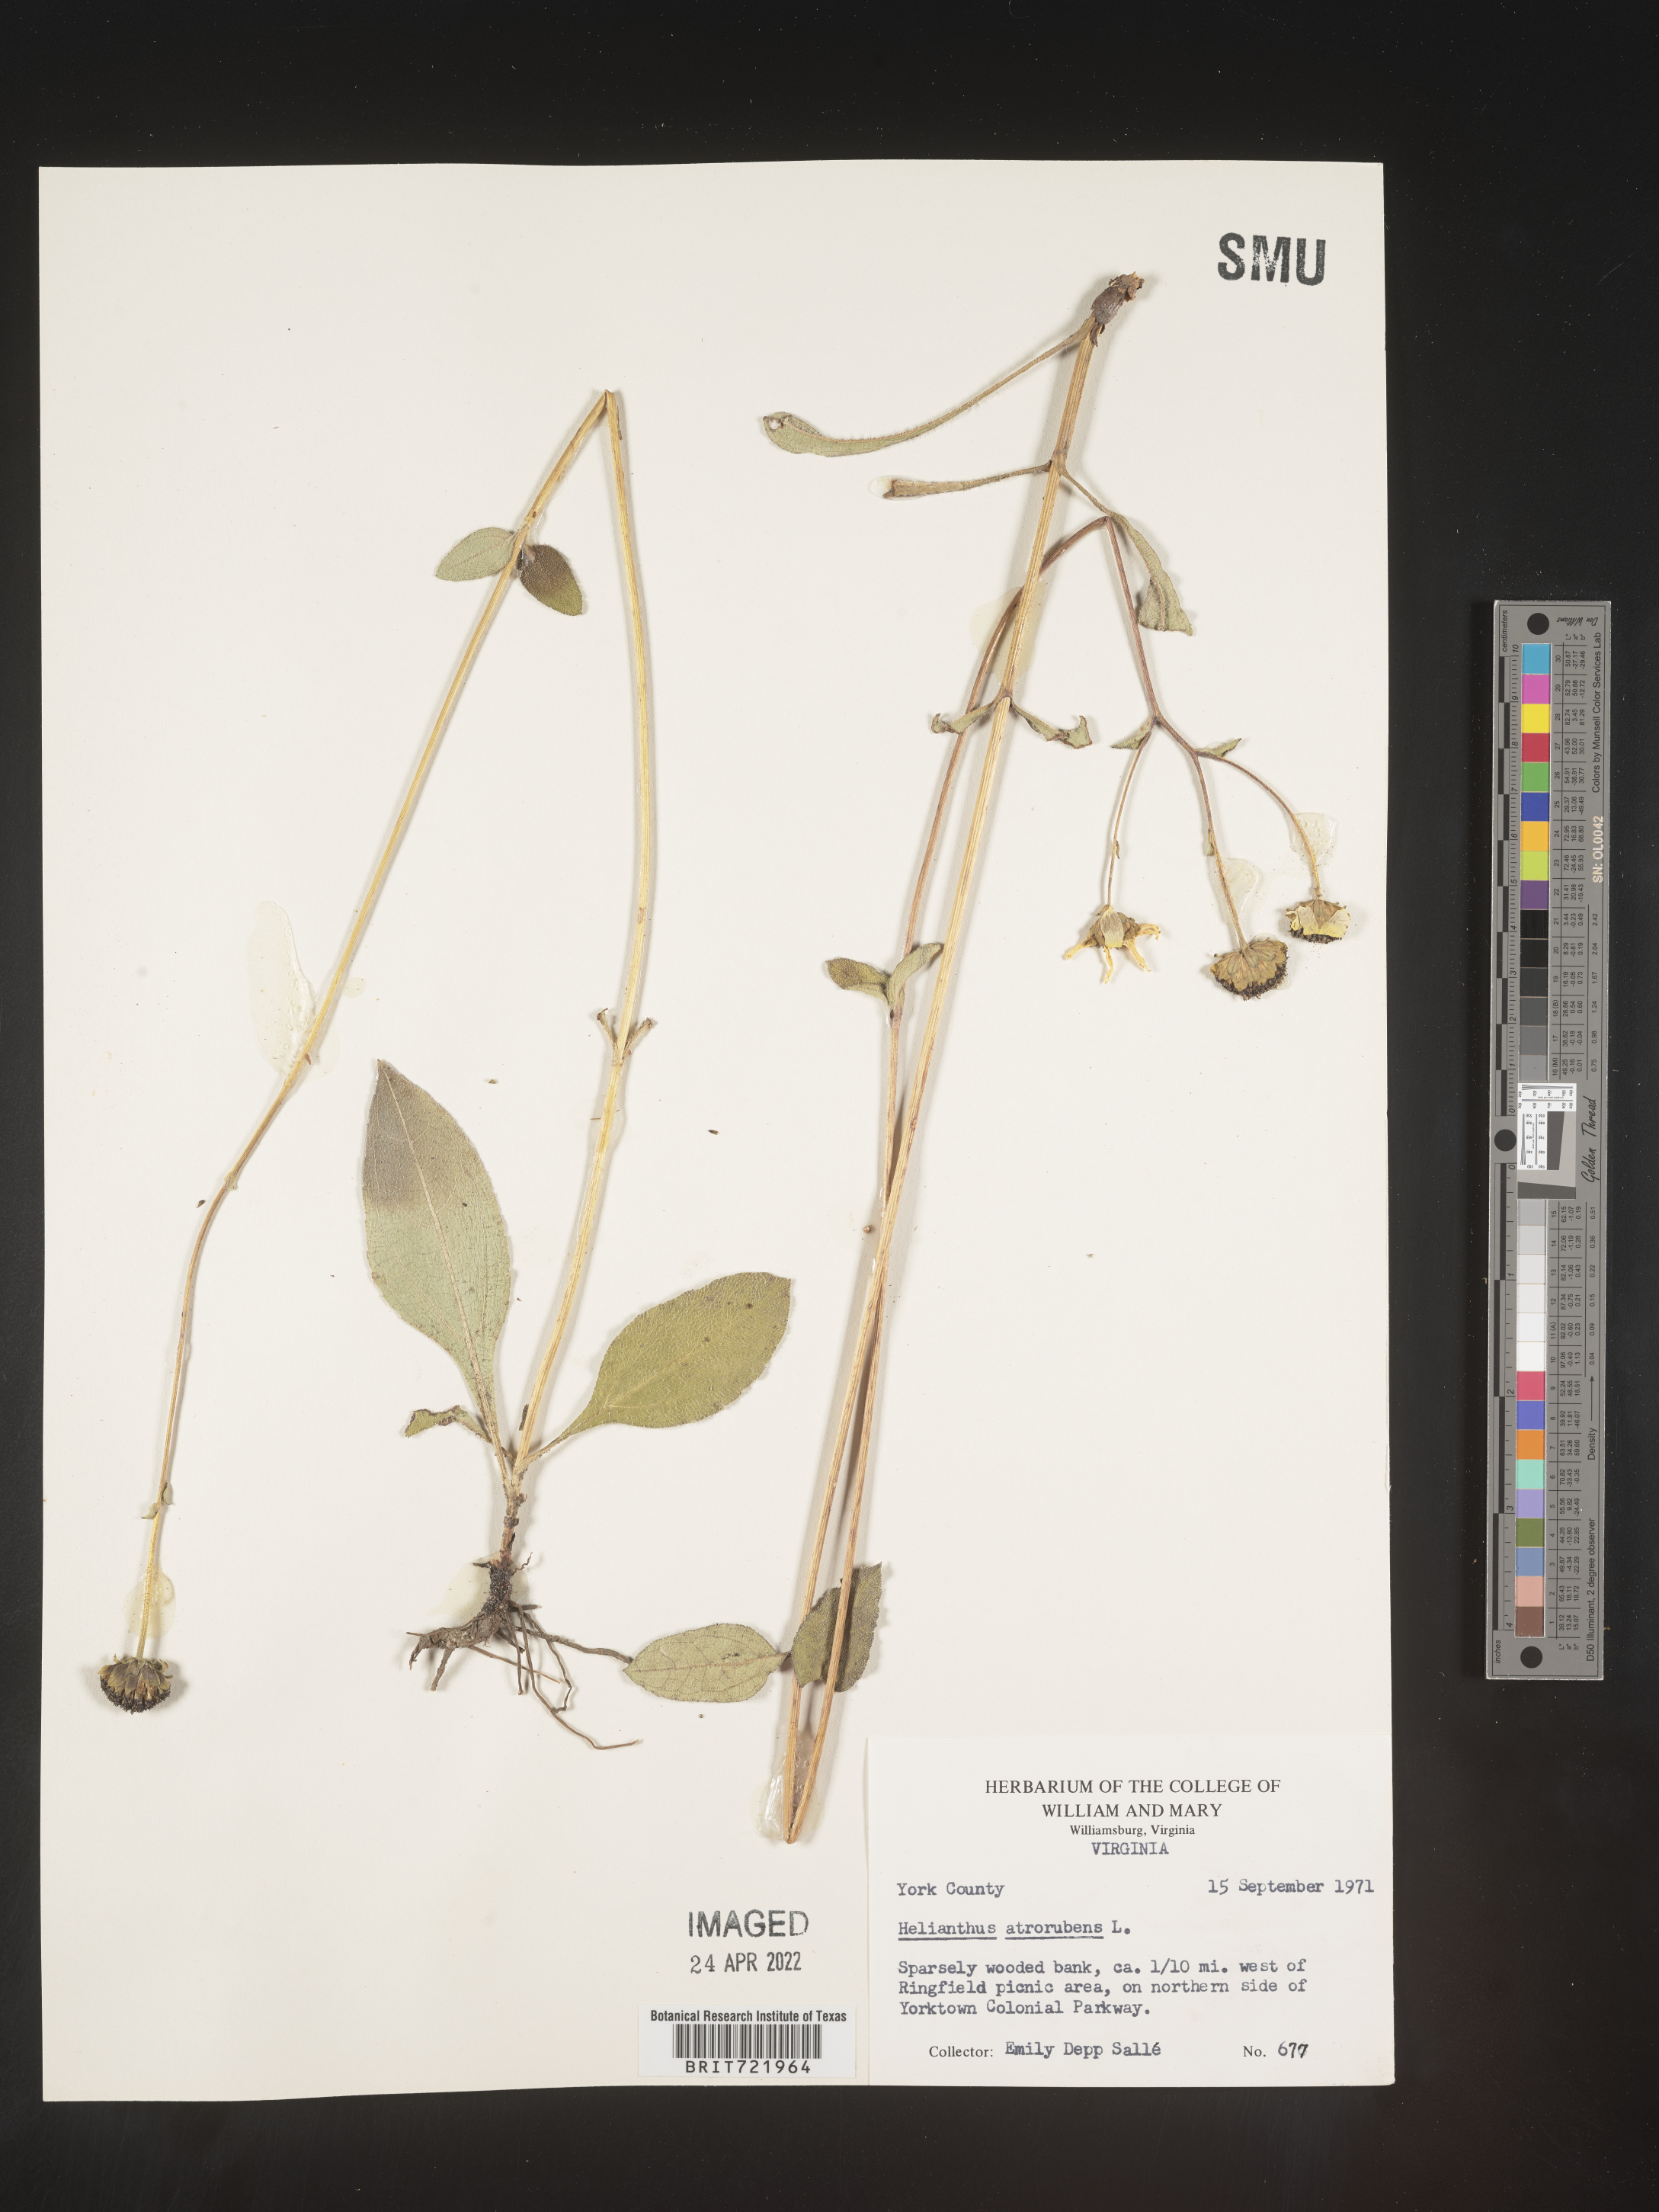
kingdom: Plantae
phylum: Tracheophyta
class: Magnoliopsida
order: Asterales
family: Asteraceae
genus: Helianthus
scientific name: Helianthus atrorubens
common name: Dark-eyed sunflower
